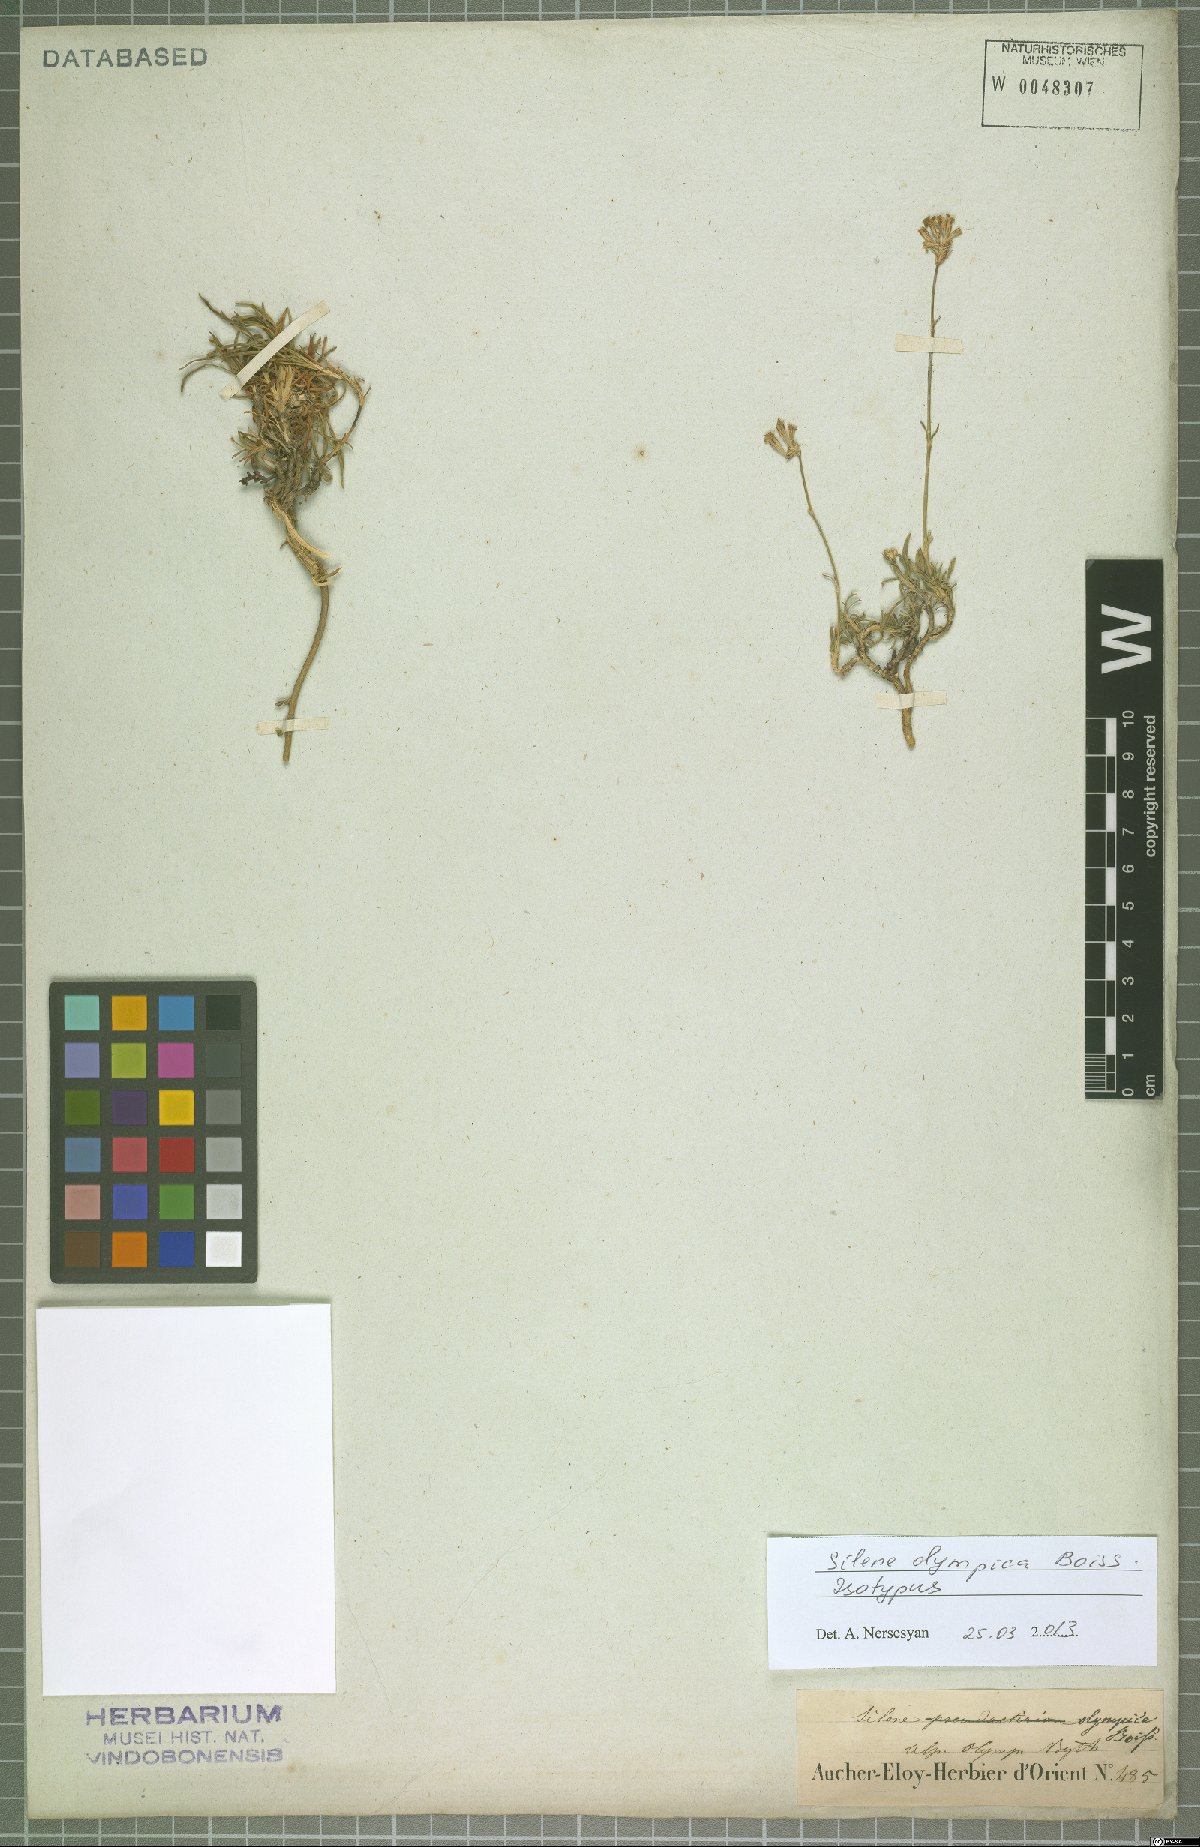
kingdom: Plantae
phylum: Tracheophyta
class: Magnoliopsida
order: Caryophyllales
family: Caryophyllaceae
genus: Silene
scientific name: Silene olympica
